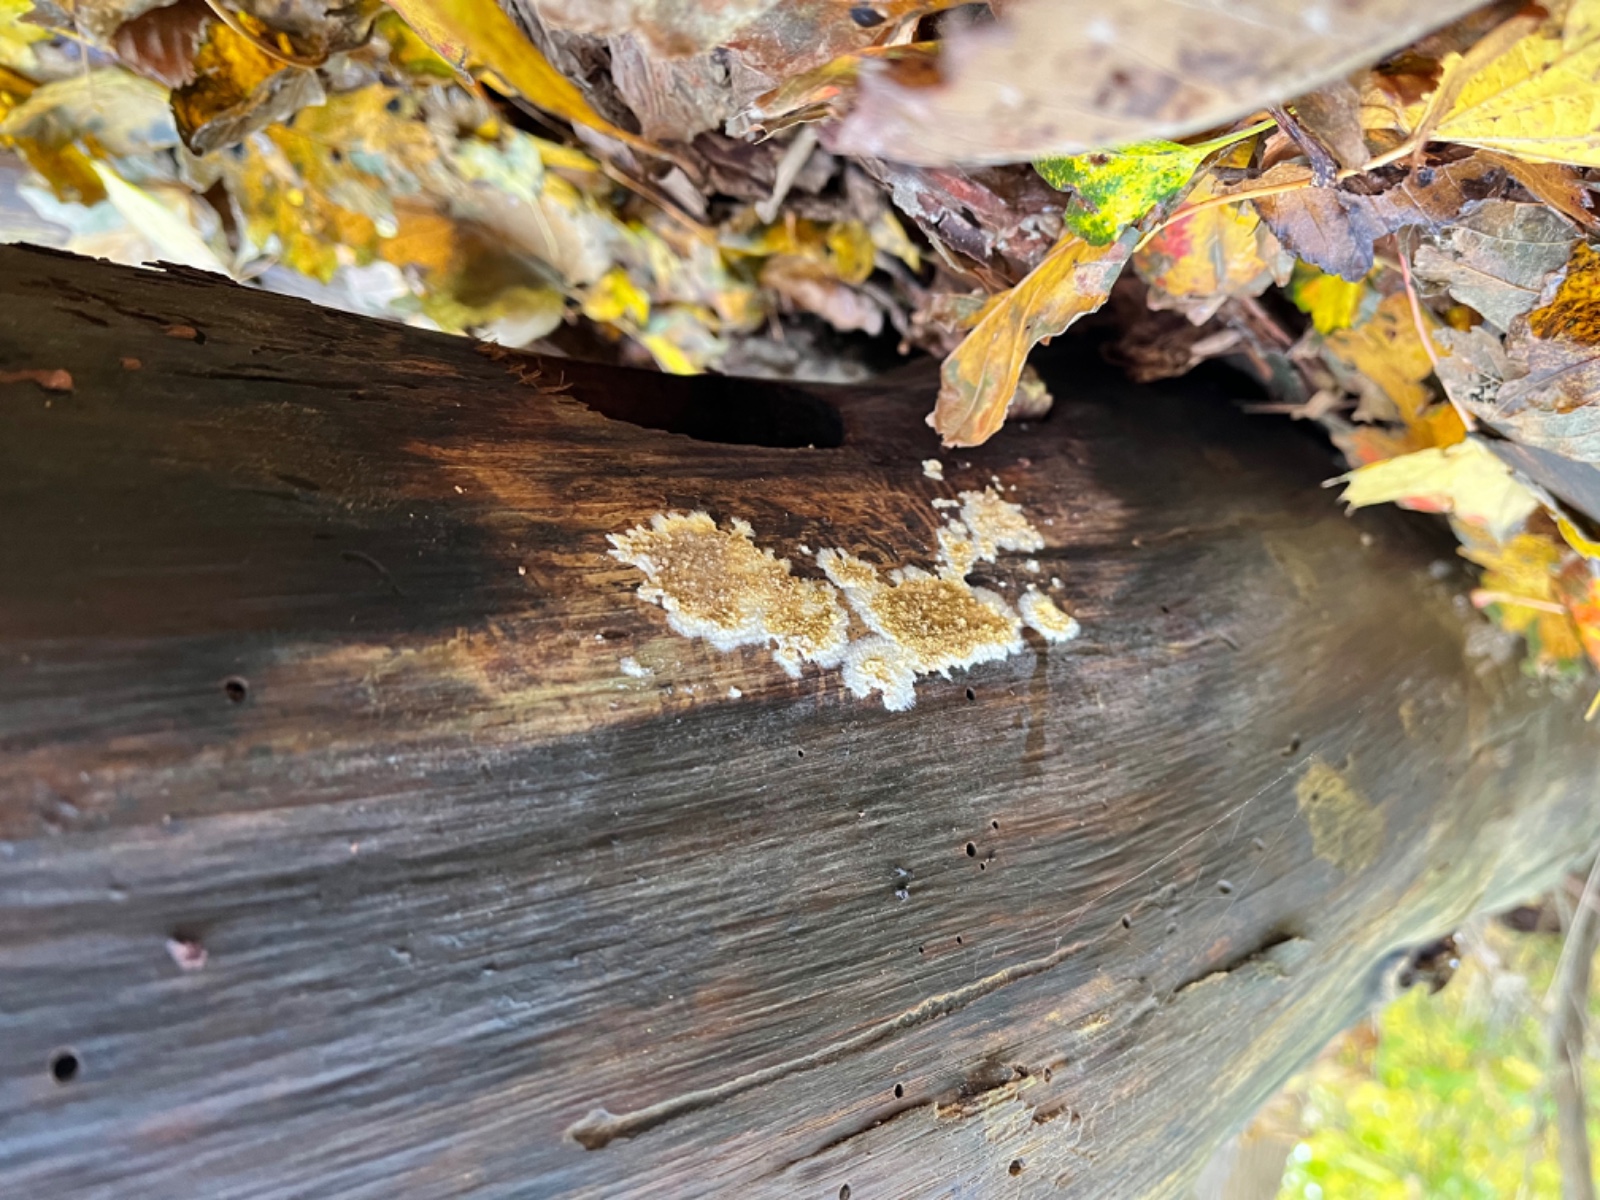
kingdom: Fungi
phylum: Basidiomycota
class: Agaricomycetes
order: Boletales
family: Coniophoraceae
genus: Coniophora
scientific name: Coniophora puteana
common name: gul tømmersvamp
